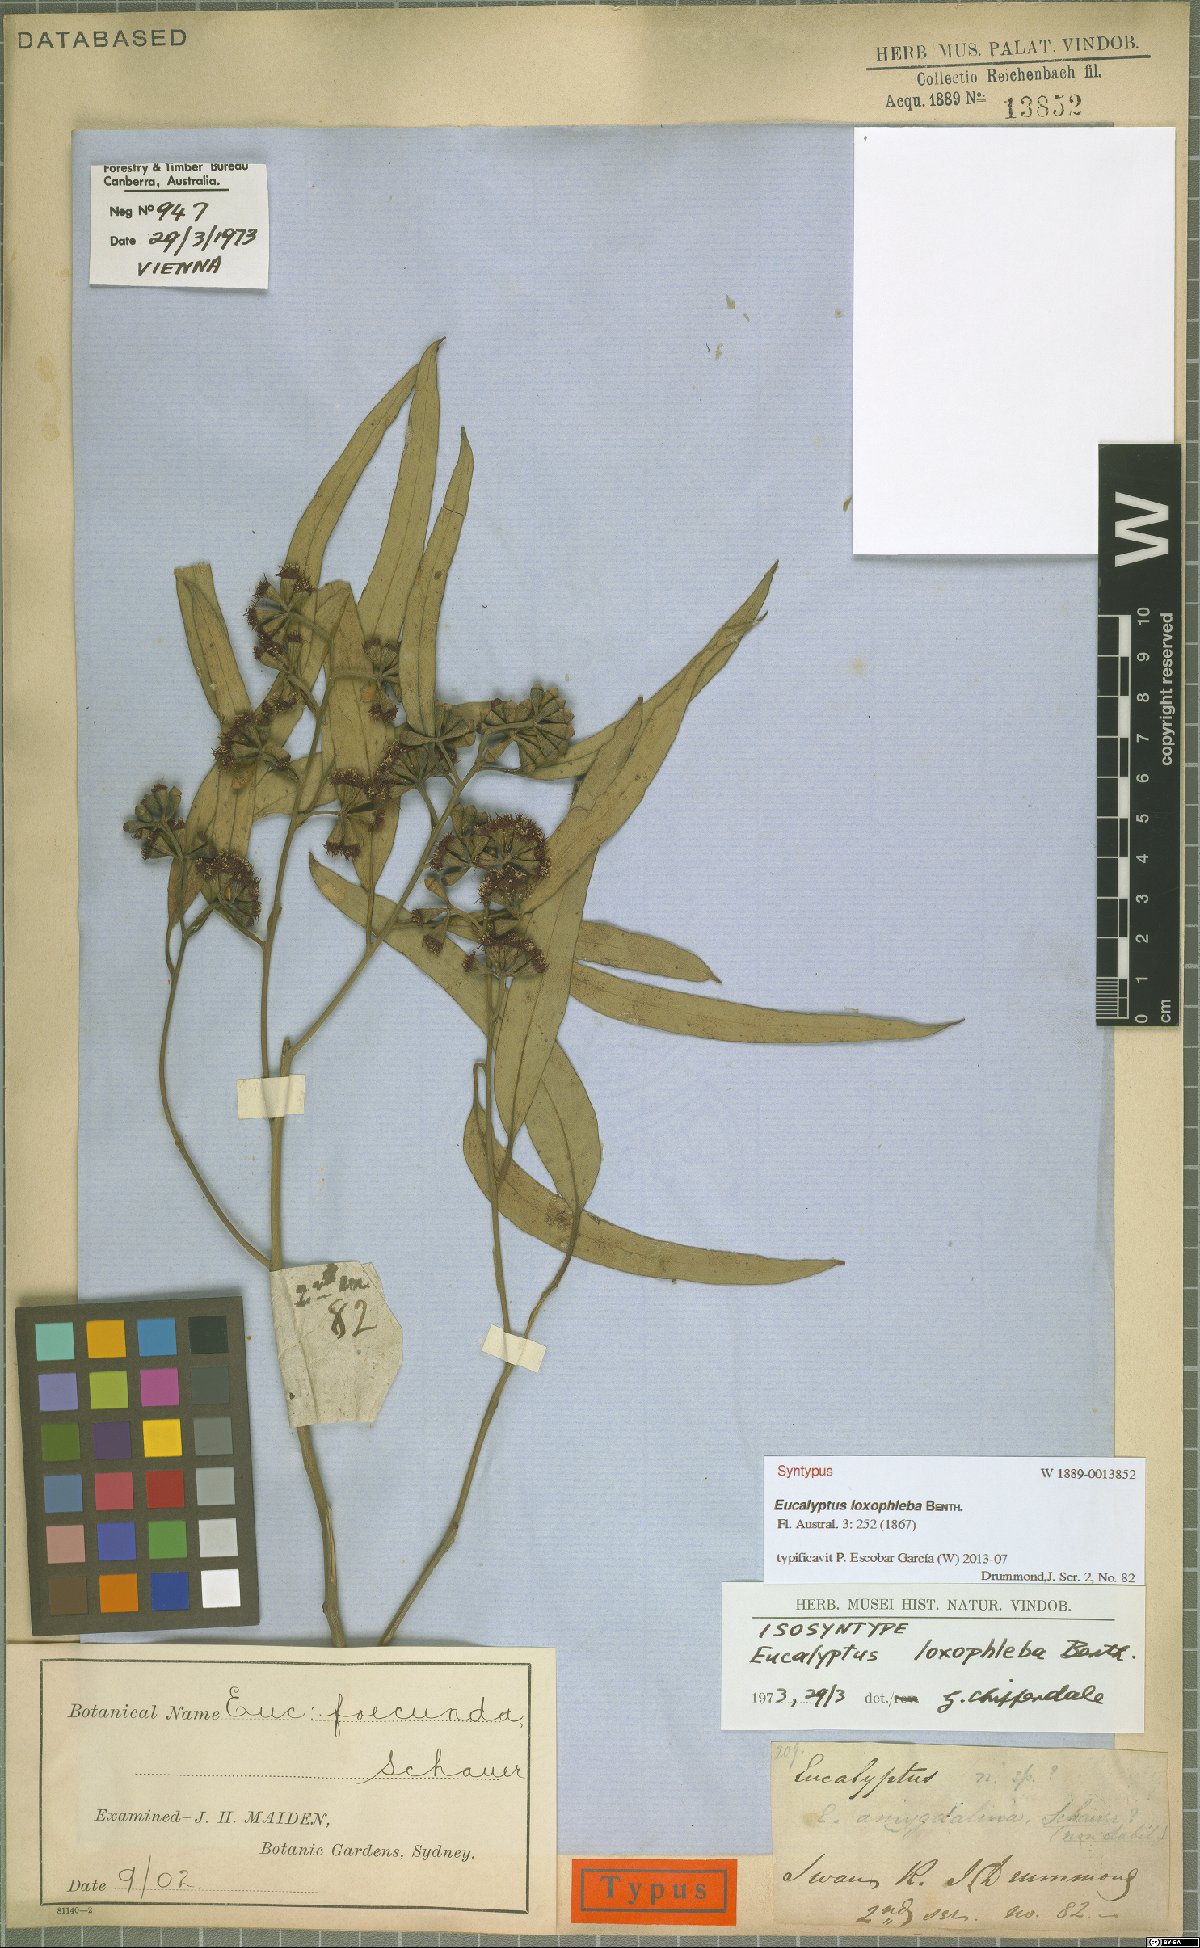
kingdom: Plantae
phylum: Tracheophyta
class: Magnoliopsida
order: Myrtales
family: Myrtaceae
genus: Eucalyptus
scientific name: Eucalyptus loxophleba
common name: York gum
